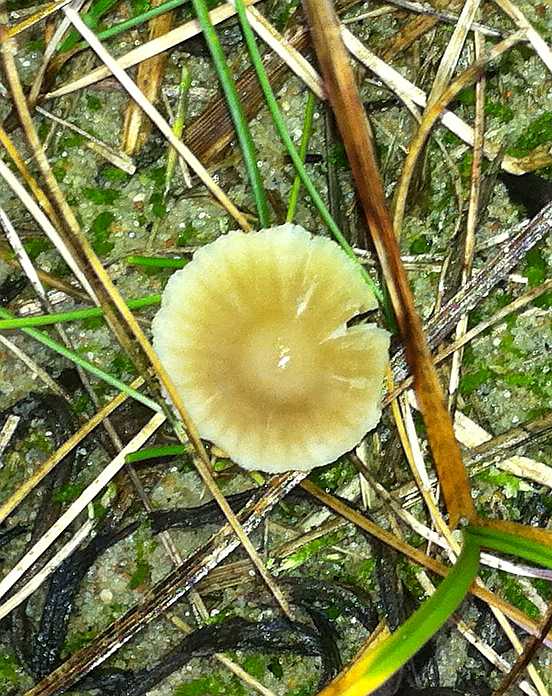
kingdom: Fungi
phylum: Basidiomycota
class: Agaricomycetes
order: Agaricales
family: Mycenaceae
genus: Mycena
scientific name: Mycena chlorantha
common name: klit-huesvamp
